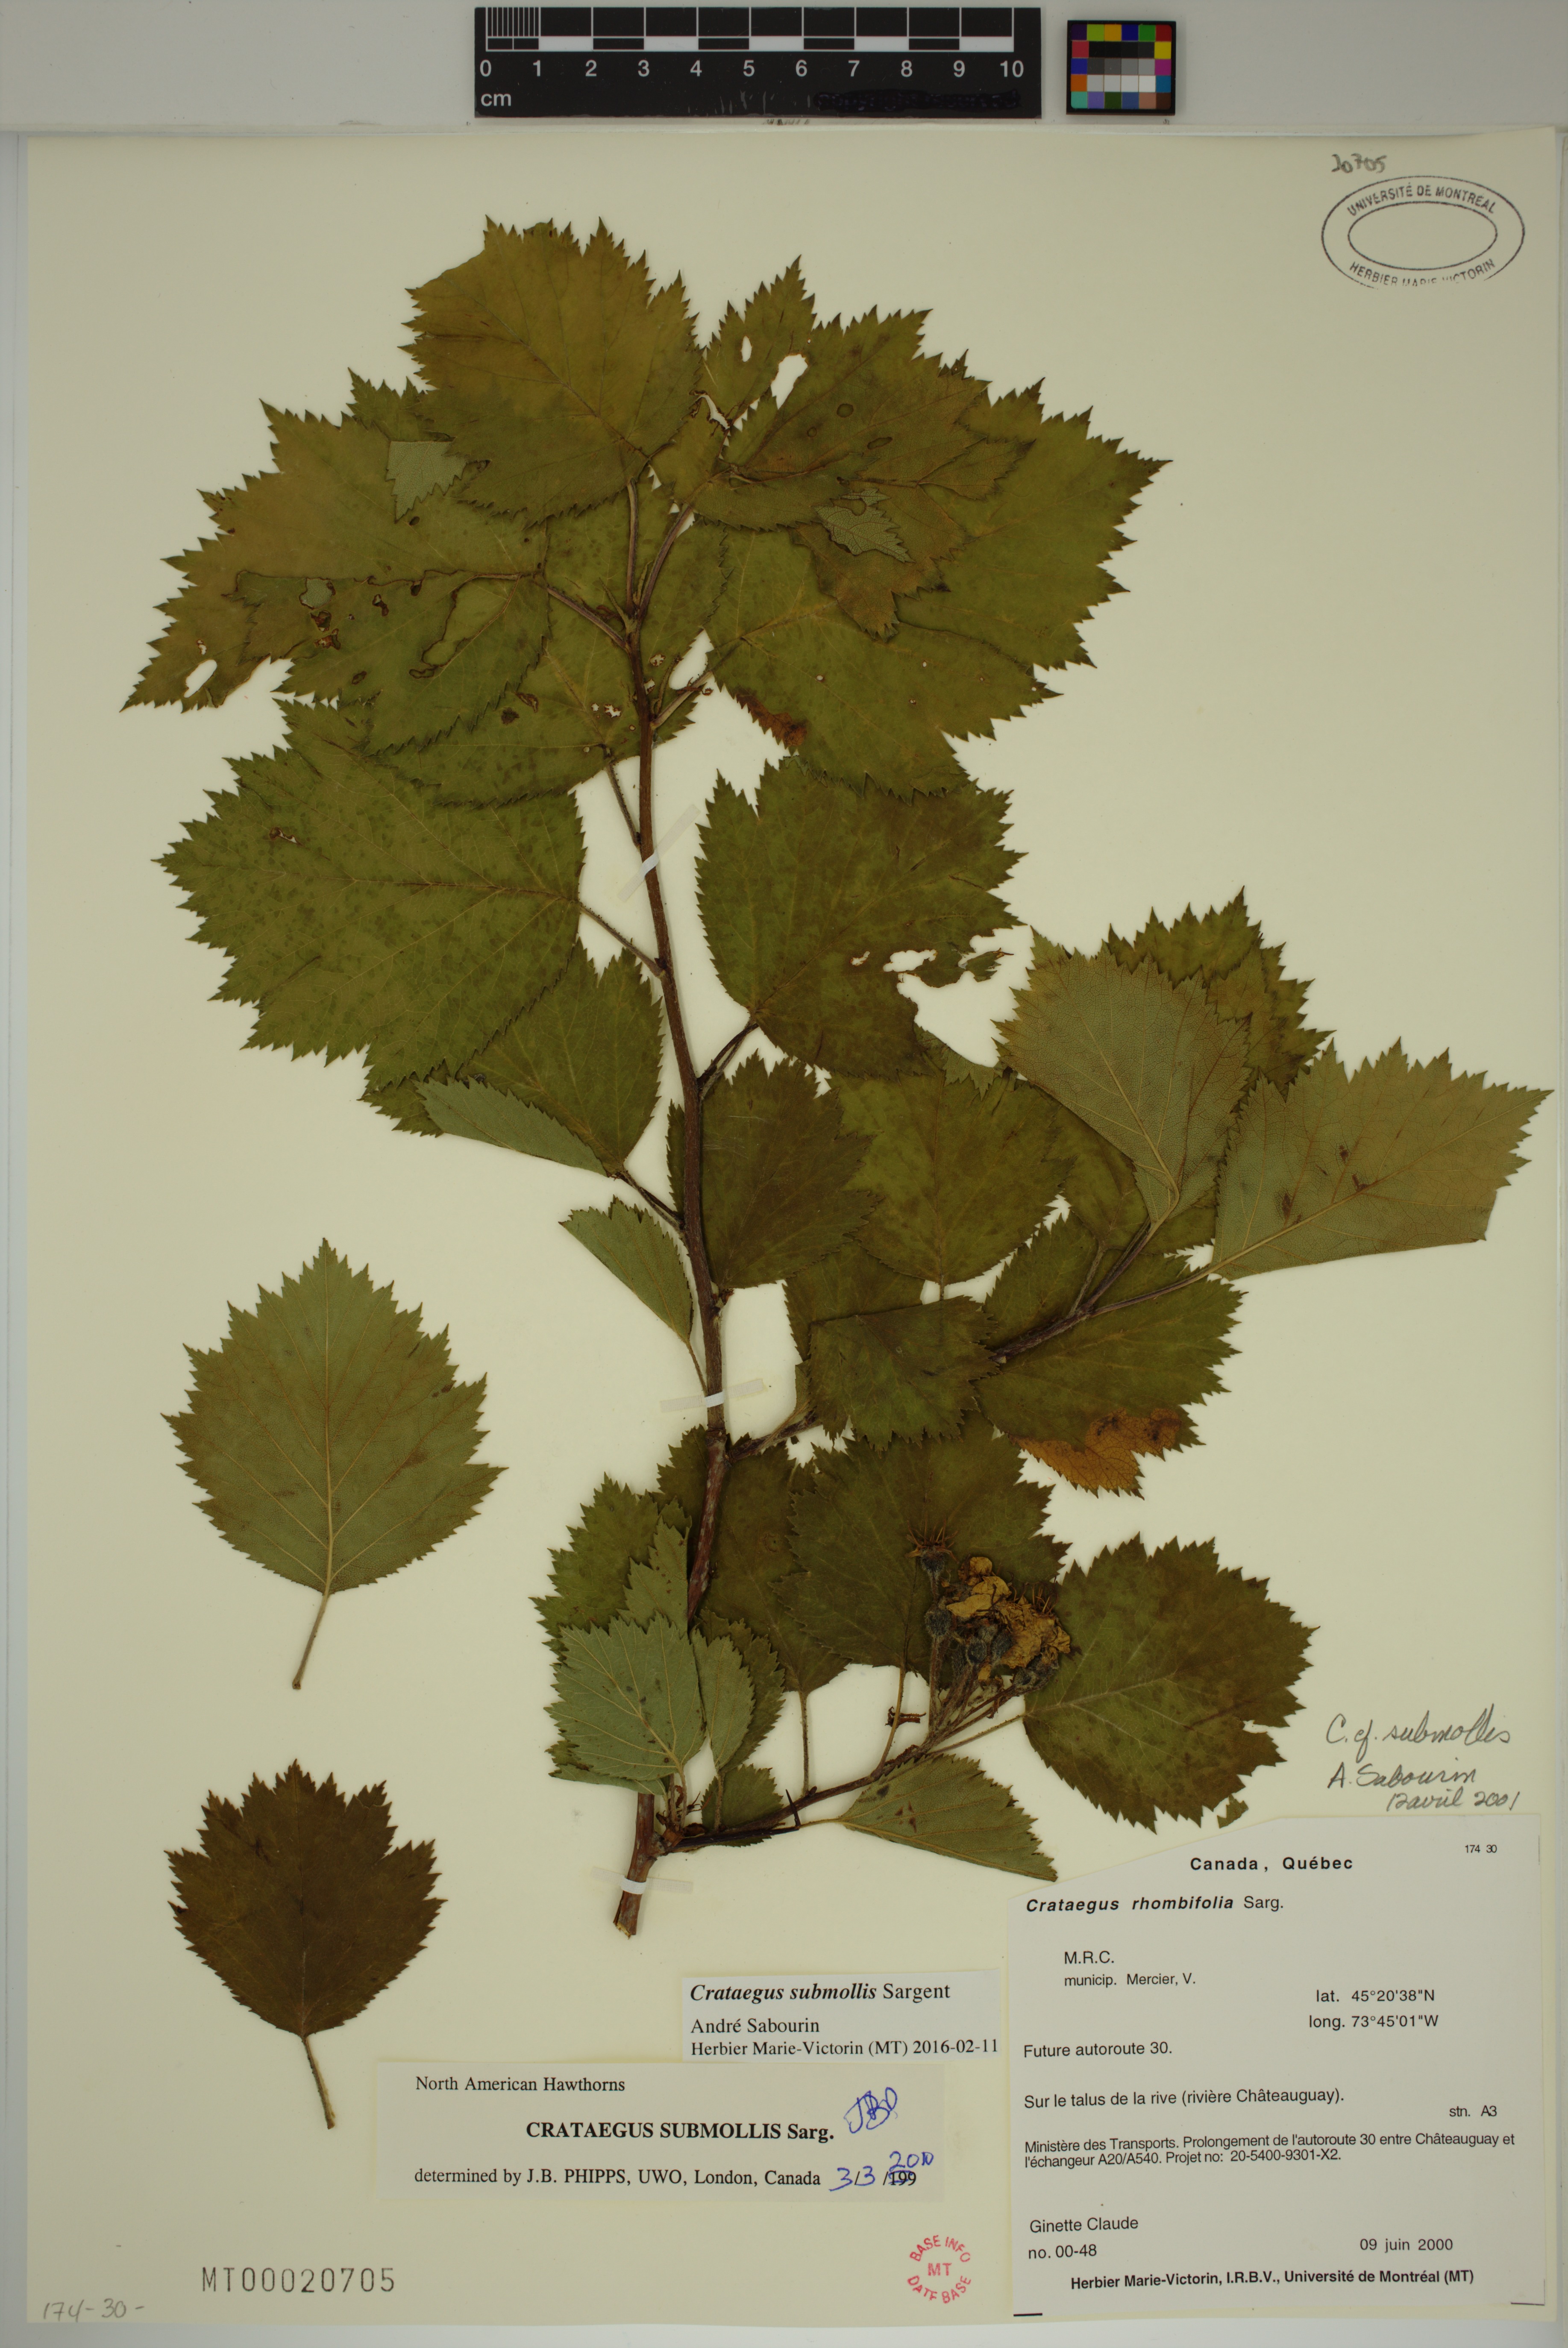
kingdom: Plantae
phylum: Tracheophyta
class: Magnoliopsida
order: Rosales
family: Rosaceae
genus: Crataegus
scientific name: Crataegus submollis
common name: Hairy cockspurthorn
